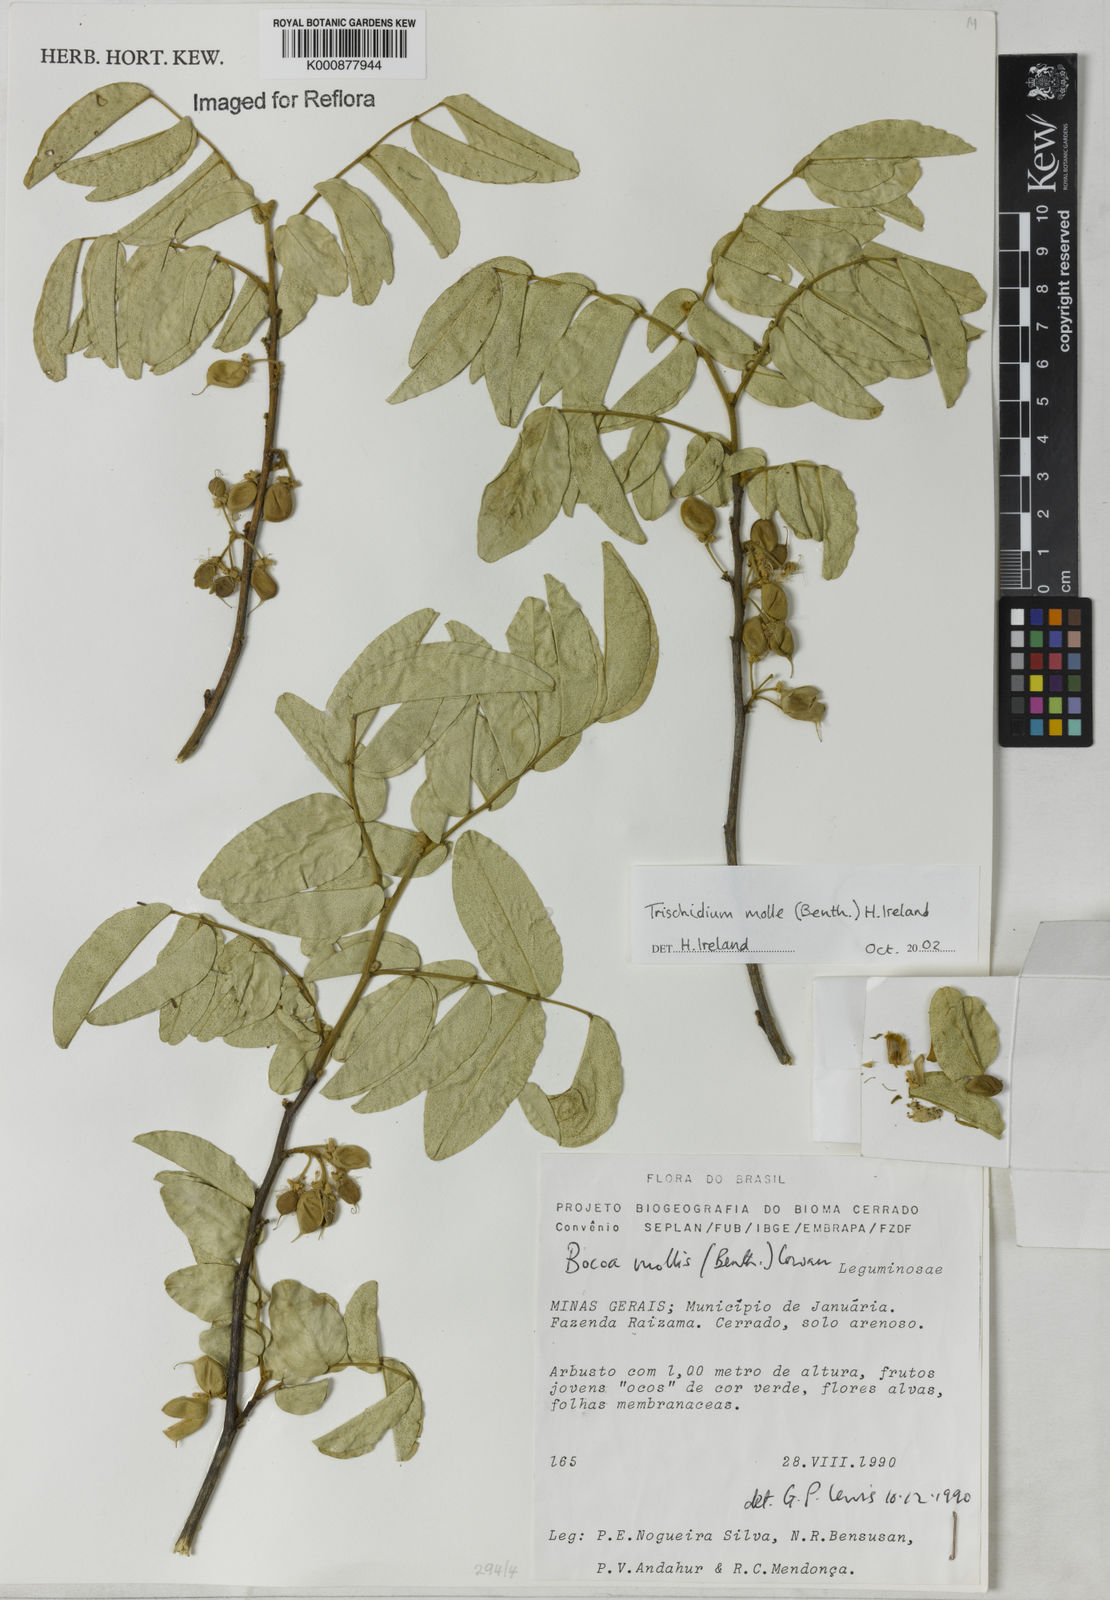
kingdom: Plantae
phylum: Tracheophyta
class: Magnoliopsida
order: Fabales
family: Fabaceae
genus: Trischidium
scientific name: Trischidium molle
